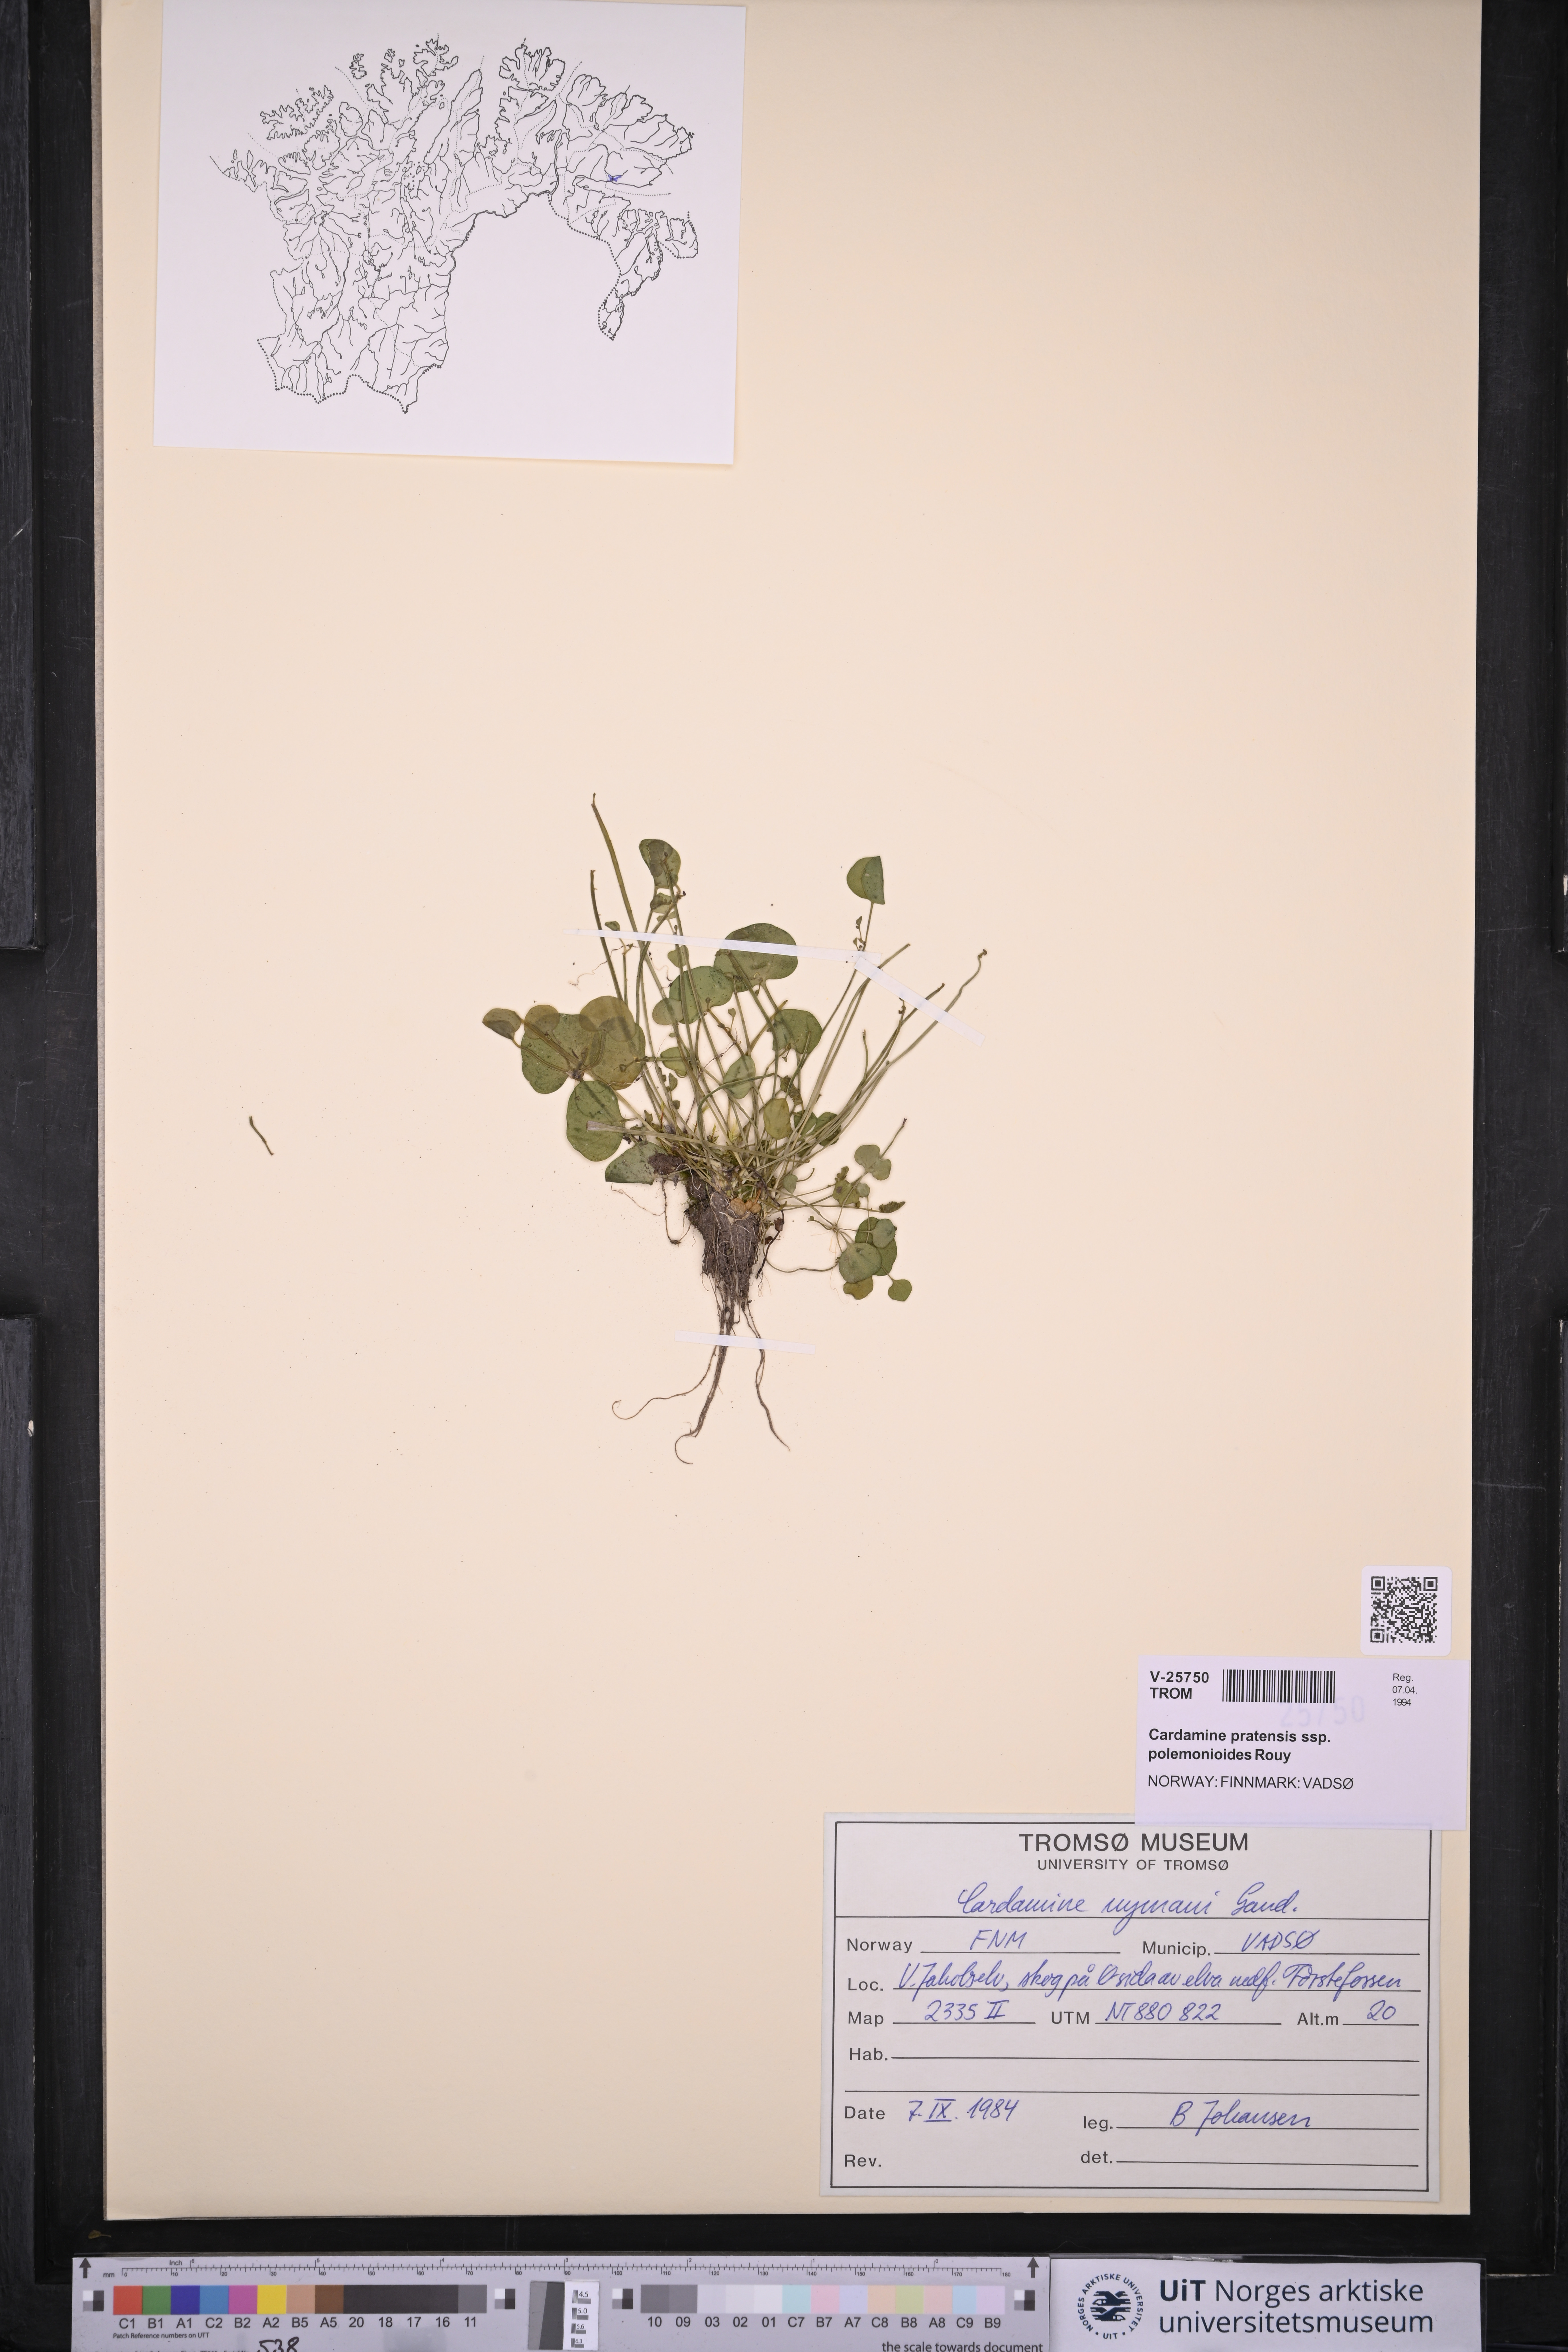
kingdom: Plantae
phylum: Tracheophyta
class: Magnoliopsida
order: Brassicales
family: Brassicaceae
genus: Cardamine
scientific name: Cardamine nymanii
